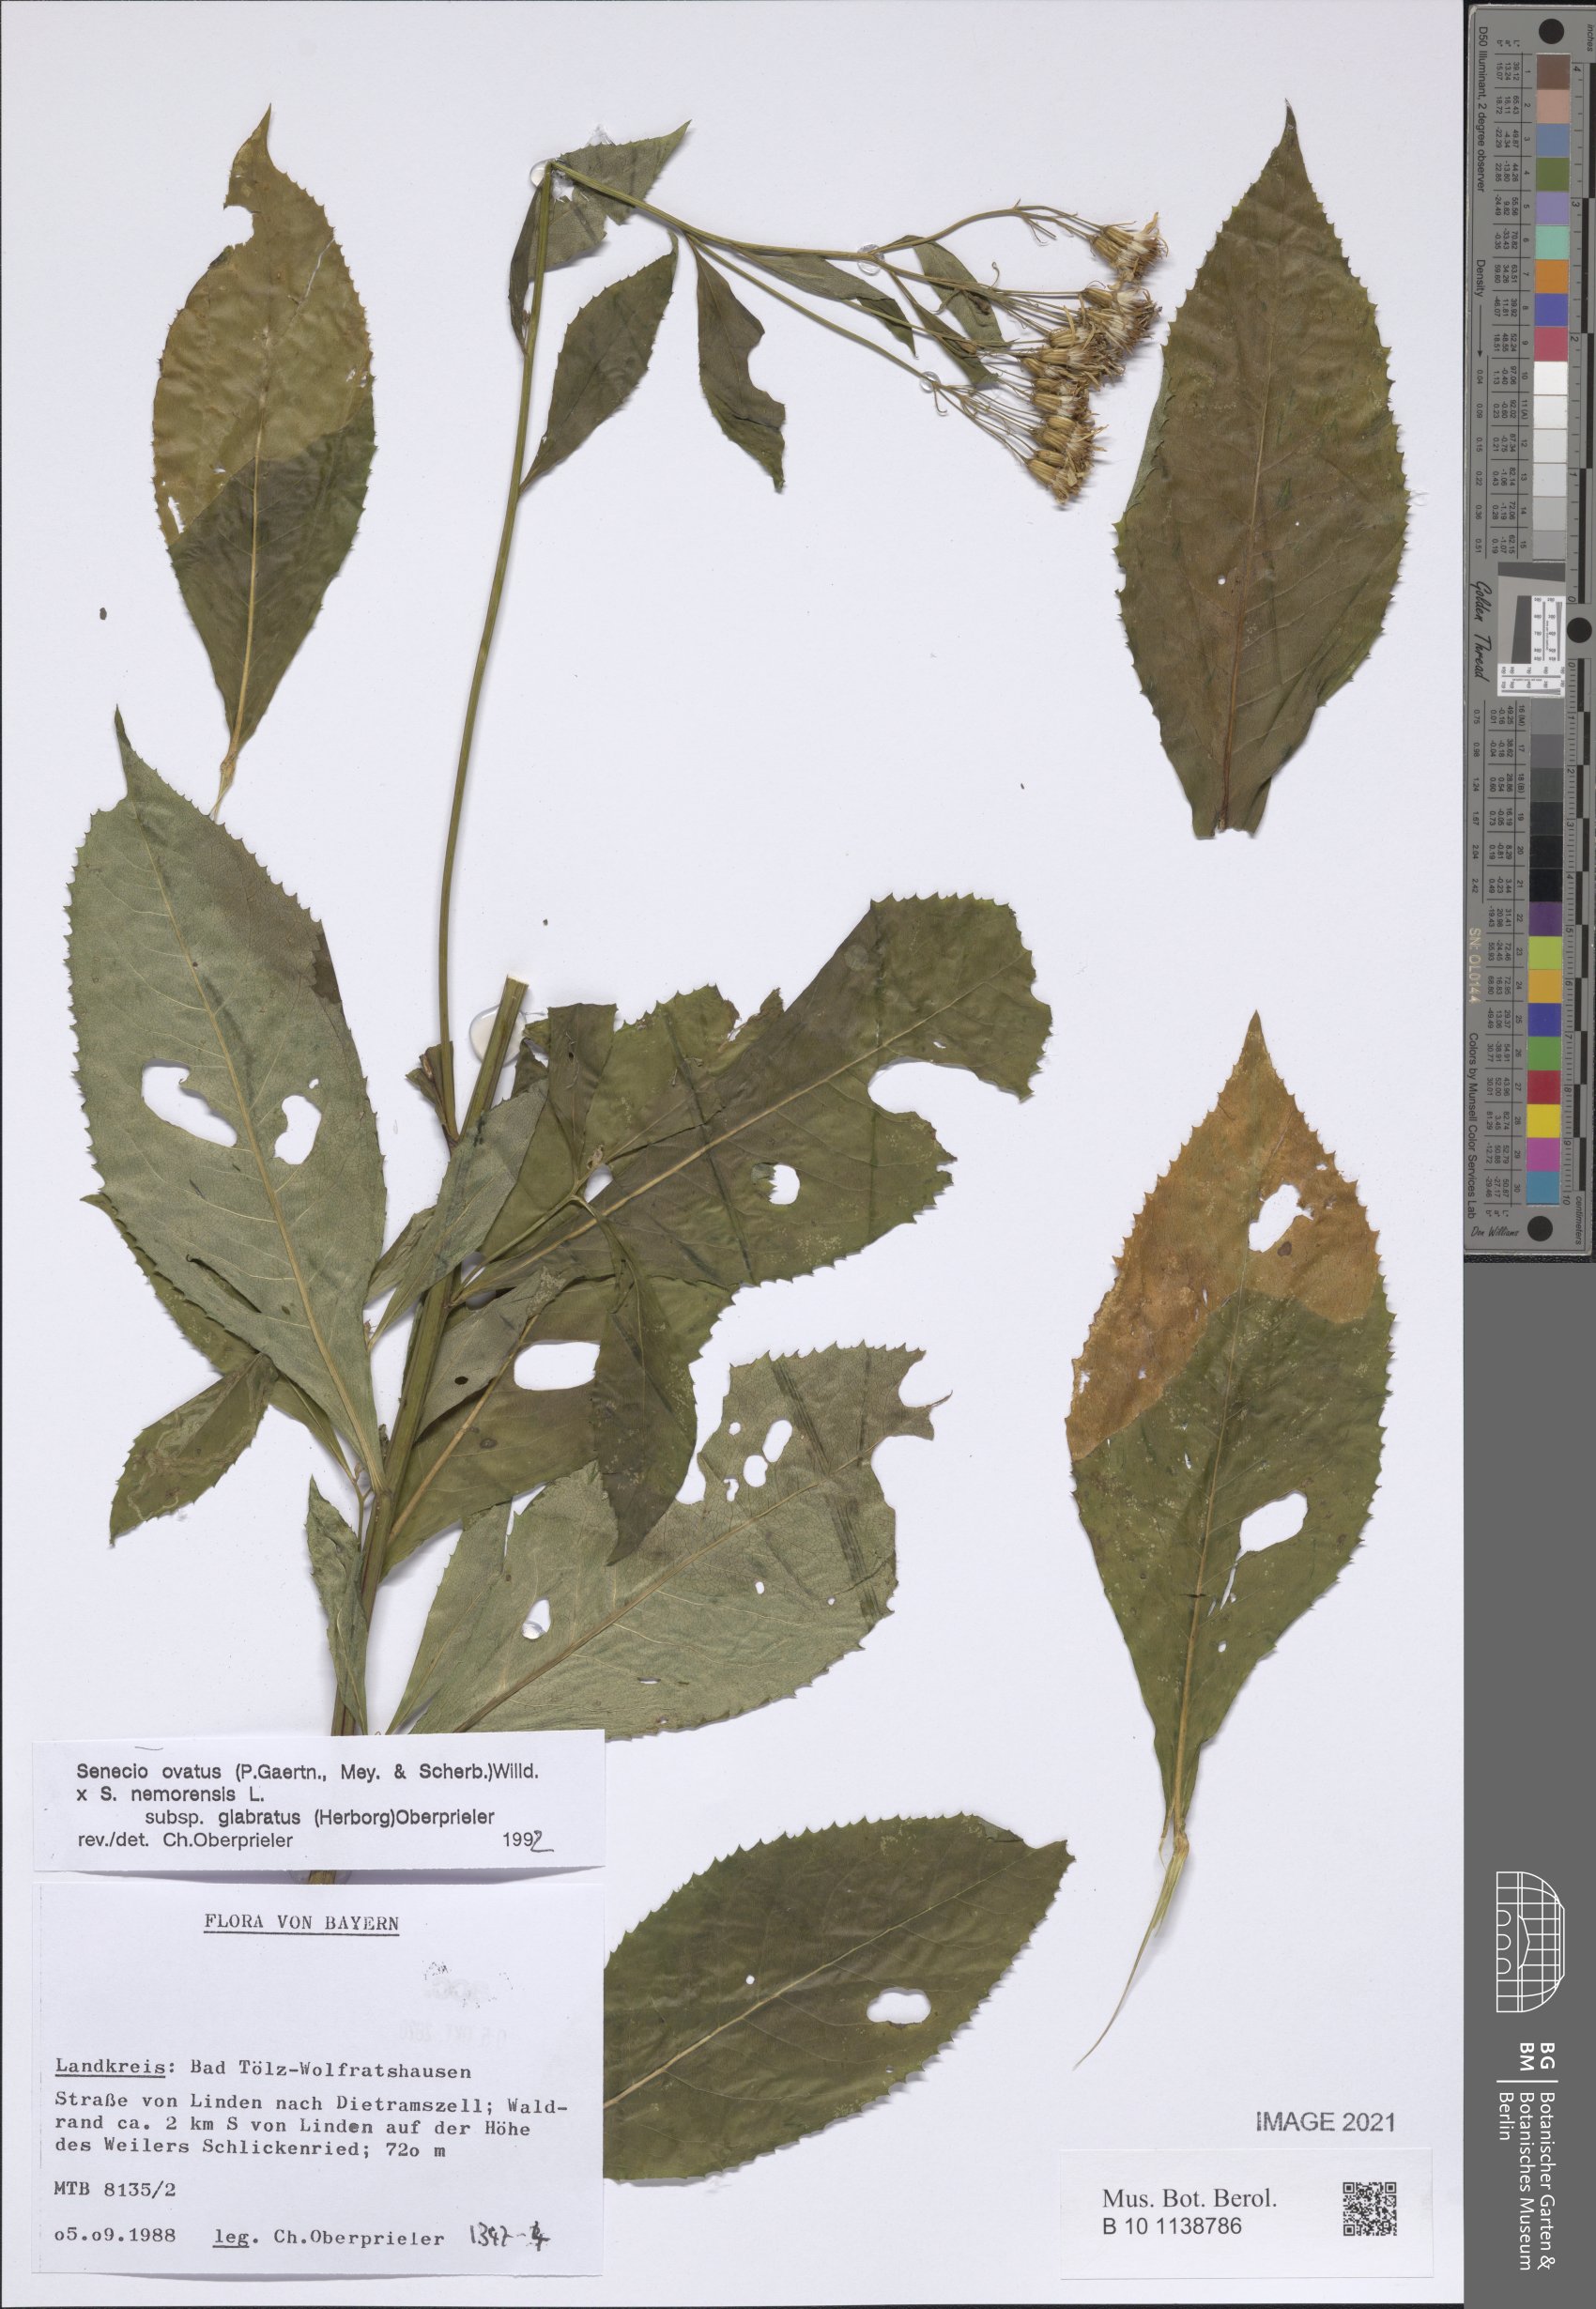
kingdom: Plantae
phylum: Tracheophyta
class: Magnoliopsida
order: Asterales
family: Asteraceae
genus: Senecio
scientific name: Senecio ovatus
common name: Wood ragwort
